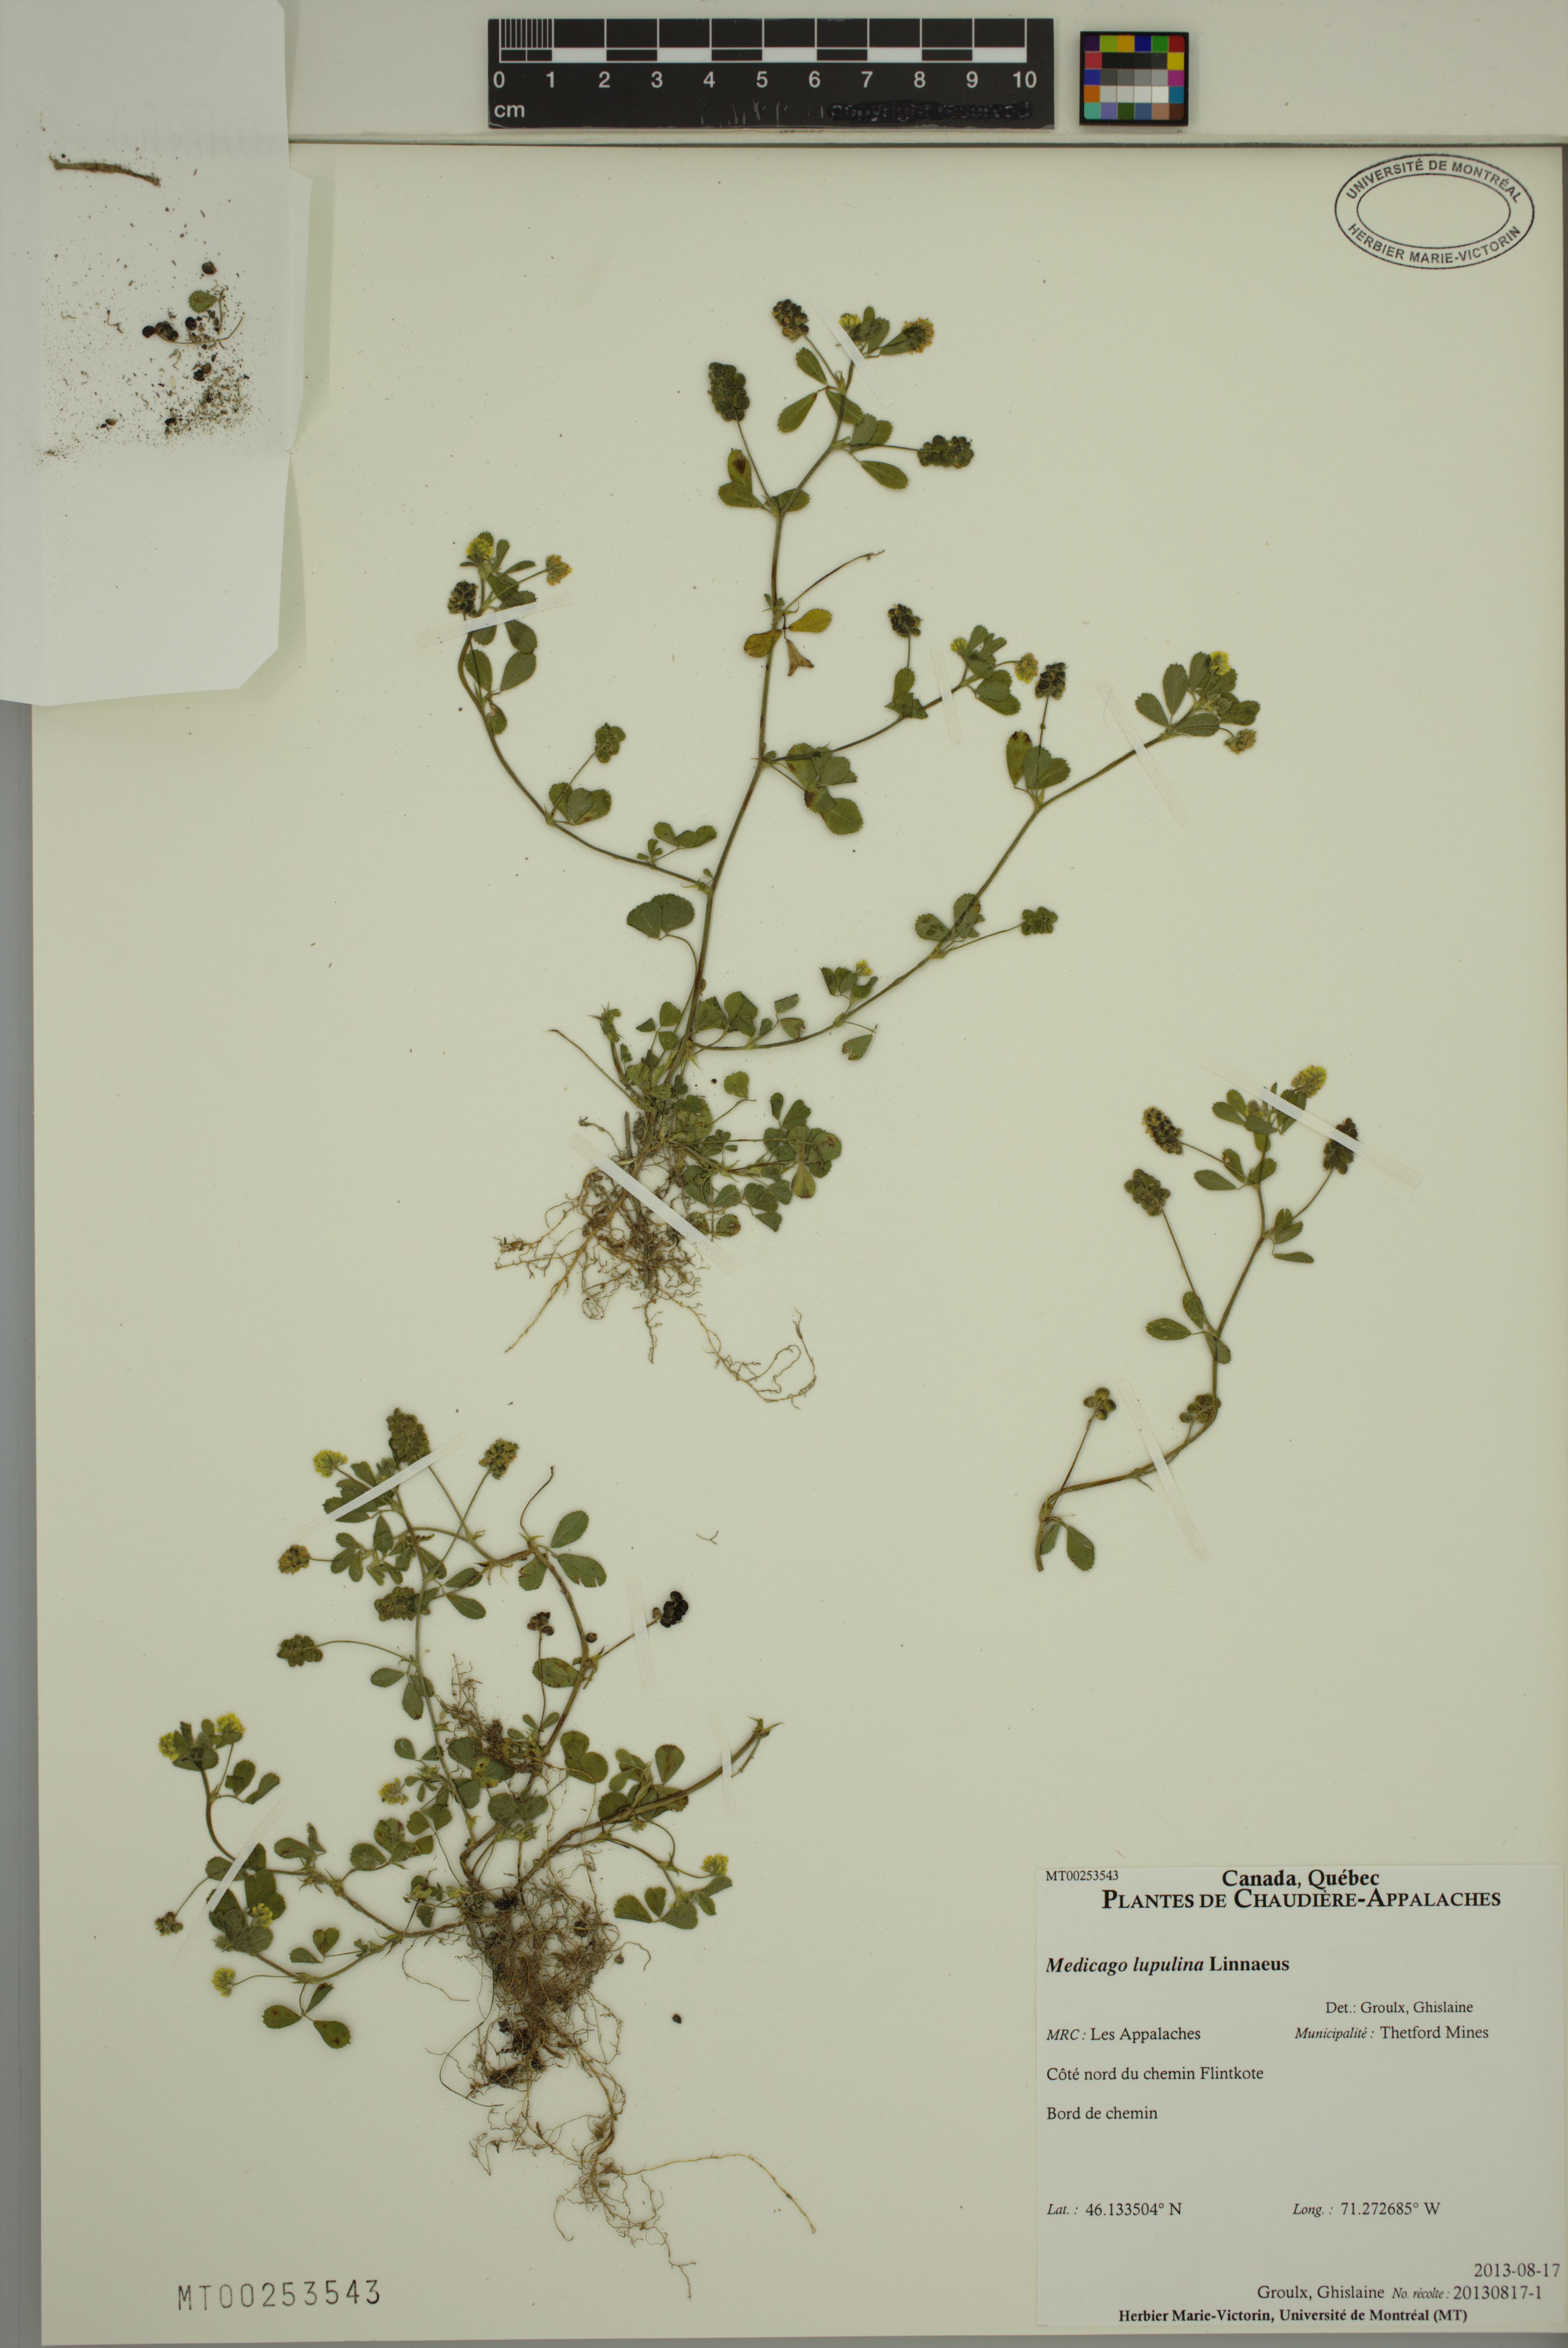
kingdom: Plantae
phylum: Tracheophyta
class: Magnoliopsida
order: Fabales
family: Fabaceae
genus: Medicago
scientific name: Medicago lupulina
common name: Black medick
